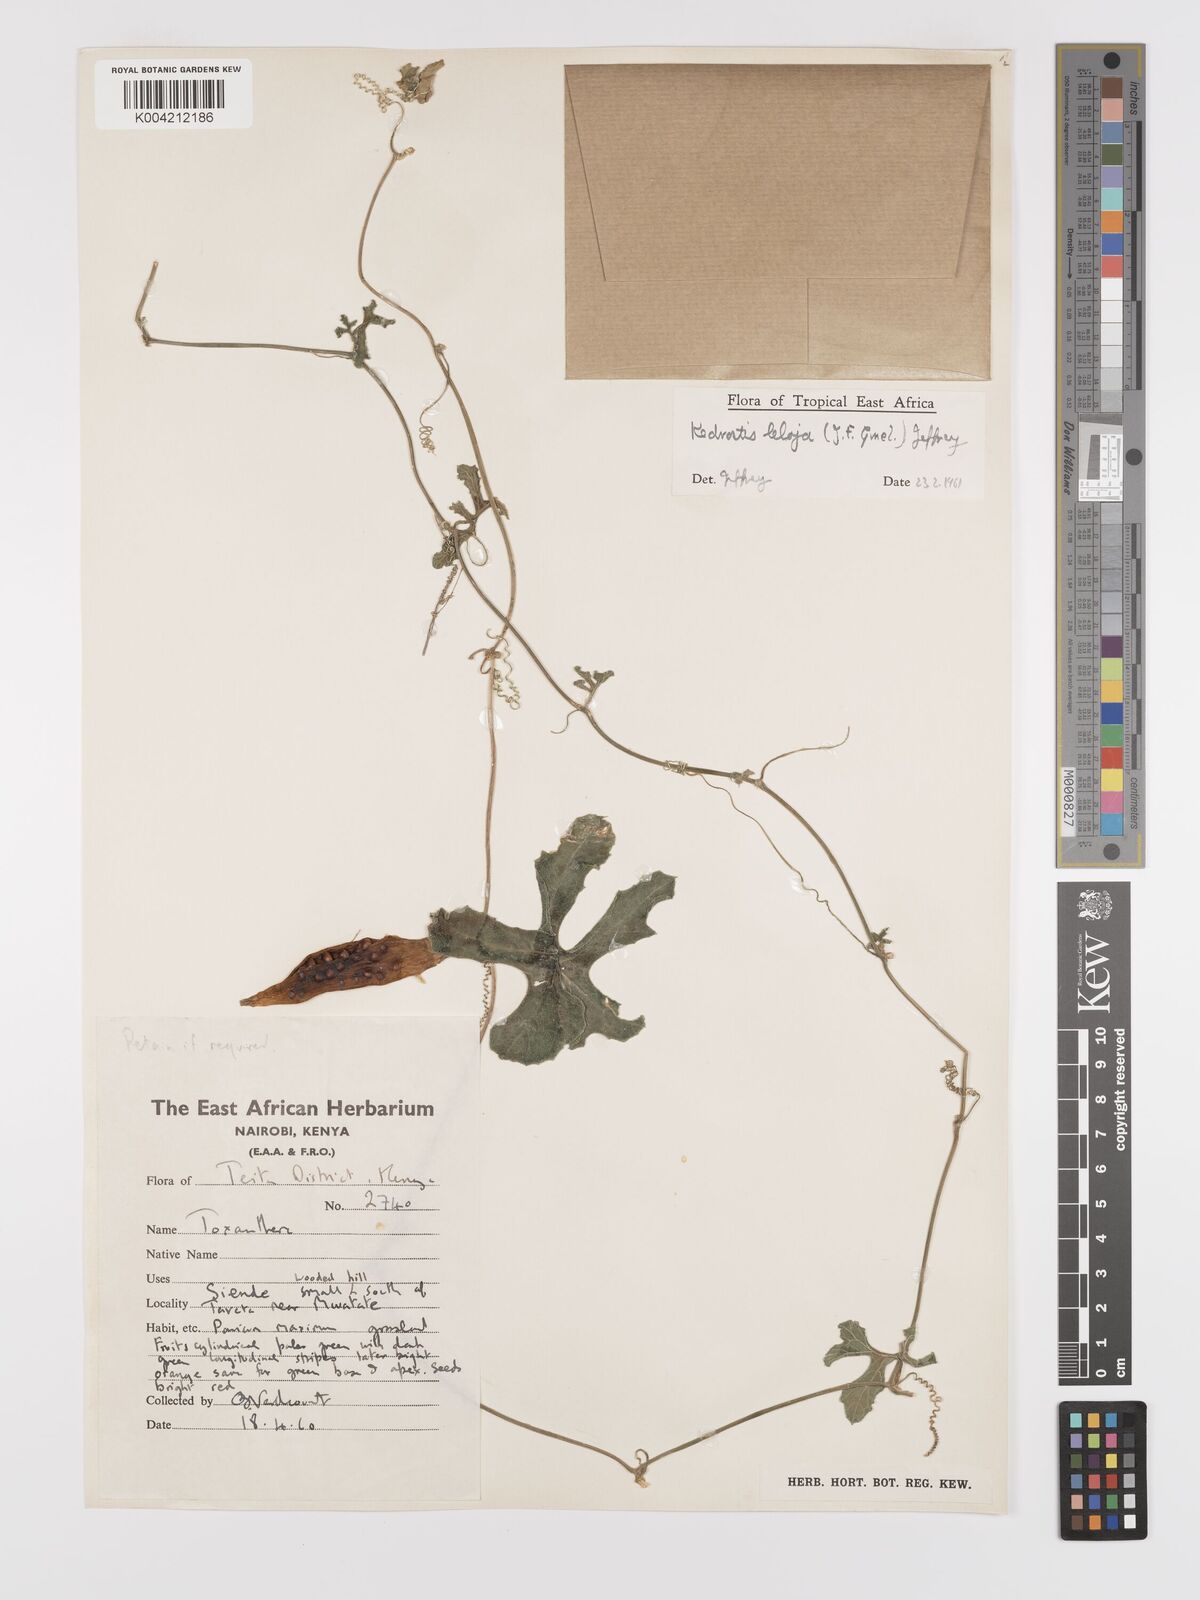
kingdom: Plantae
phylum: Tracheophyta
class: Magnoliopsida
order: Cucurbitales
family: Cucurbitaceae
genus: Kedrostis
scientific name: Kedrostis abdallae
